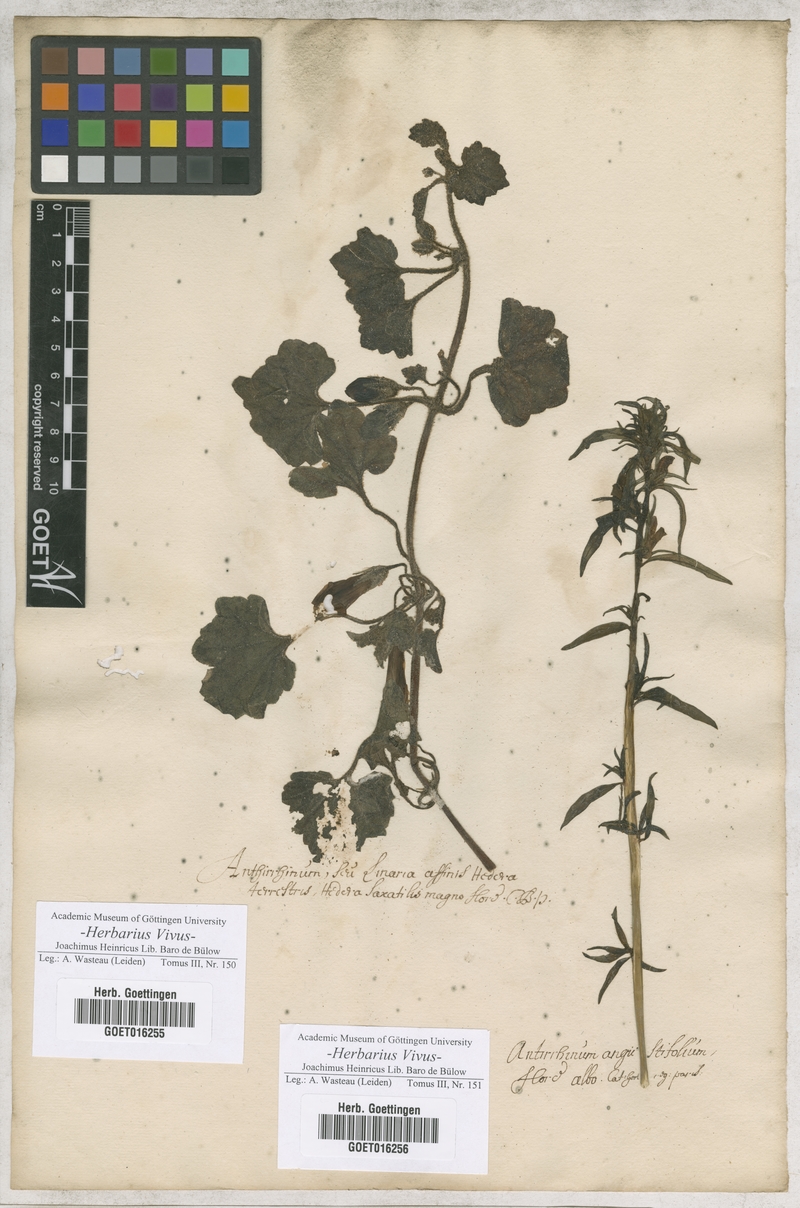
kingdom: Plantae
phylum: Tracheophyta
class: Magnoliopsida
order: Lamiales
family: Plantaginaceae
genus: Asarina
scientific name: Asarina procumbens
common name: Trailing snapdragon
